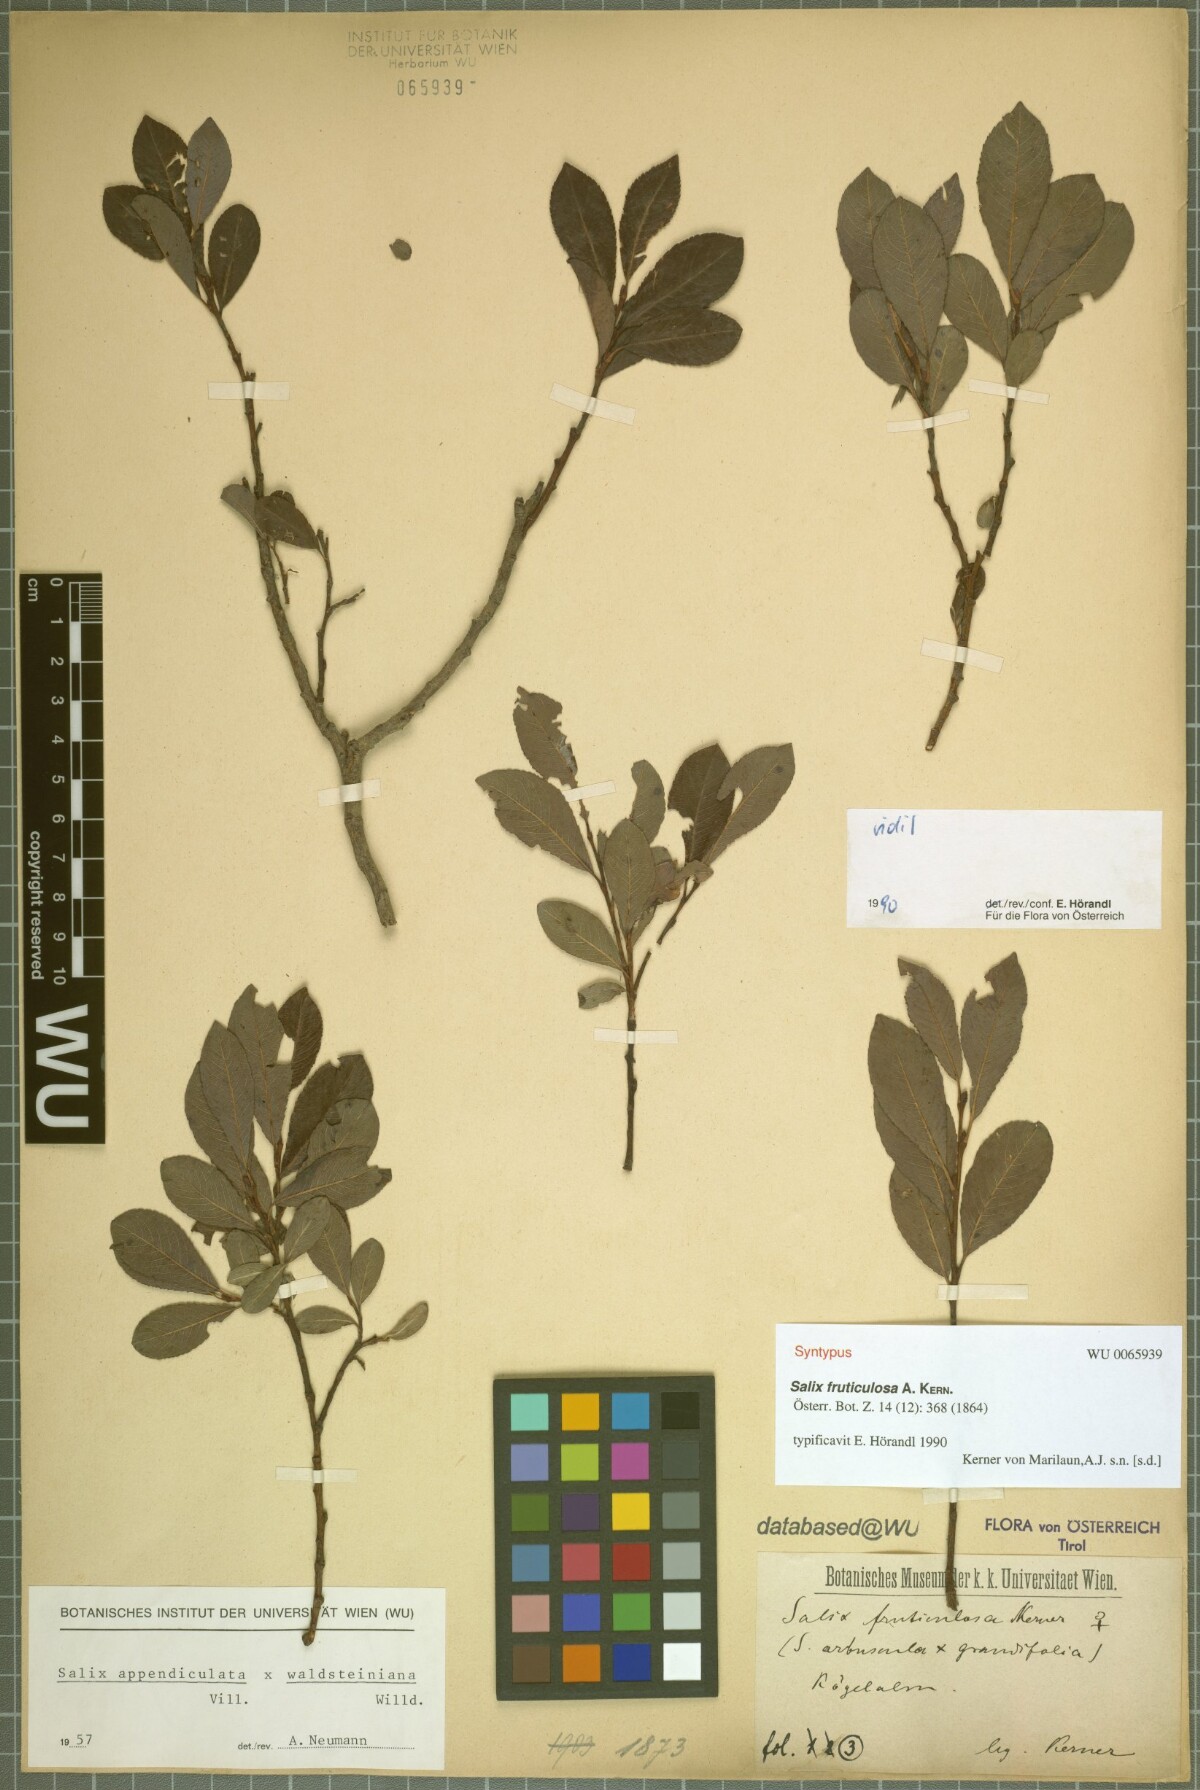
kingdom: Plantae
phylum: Tracheophyta
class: Magnoliopsida
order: Malpighiales
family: Salicaceae
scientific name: Salicaceae
